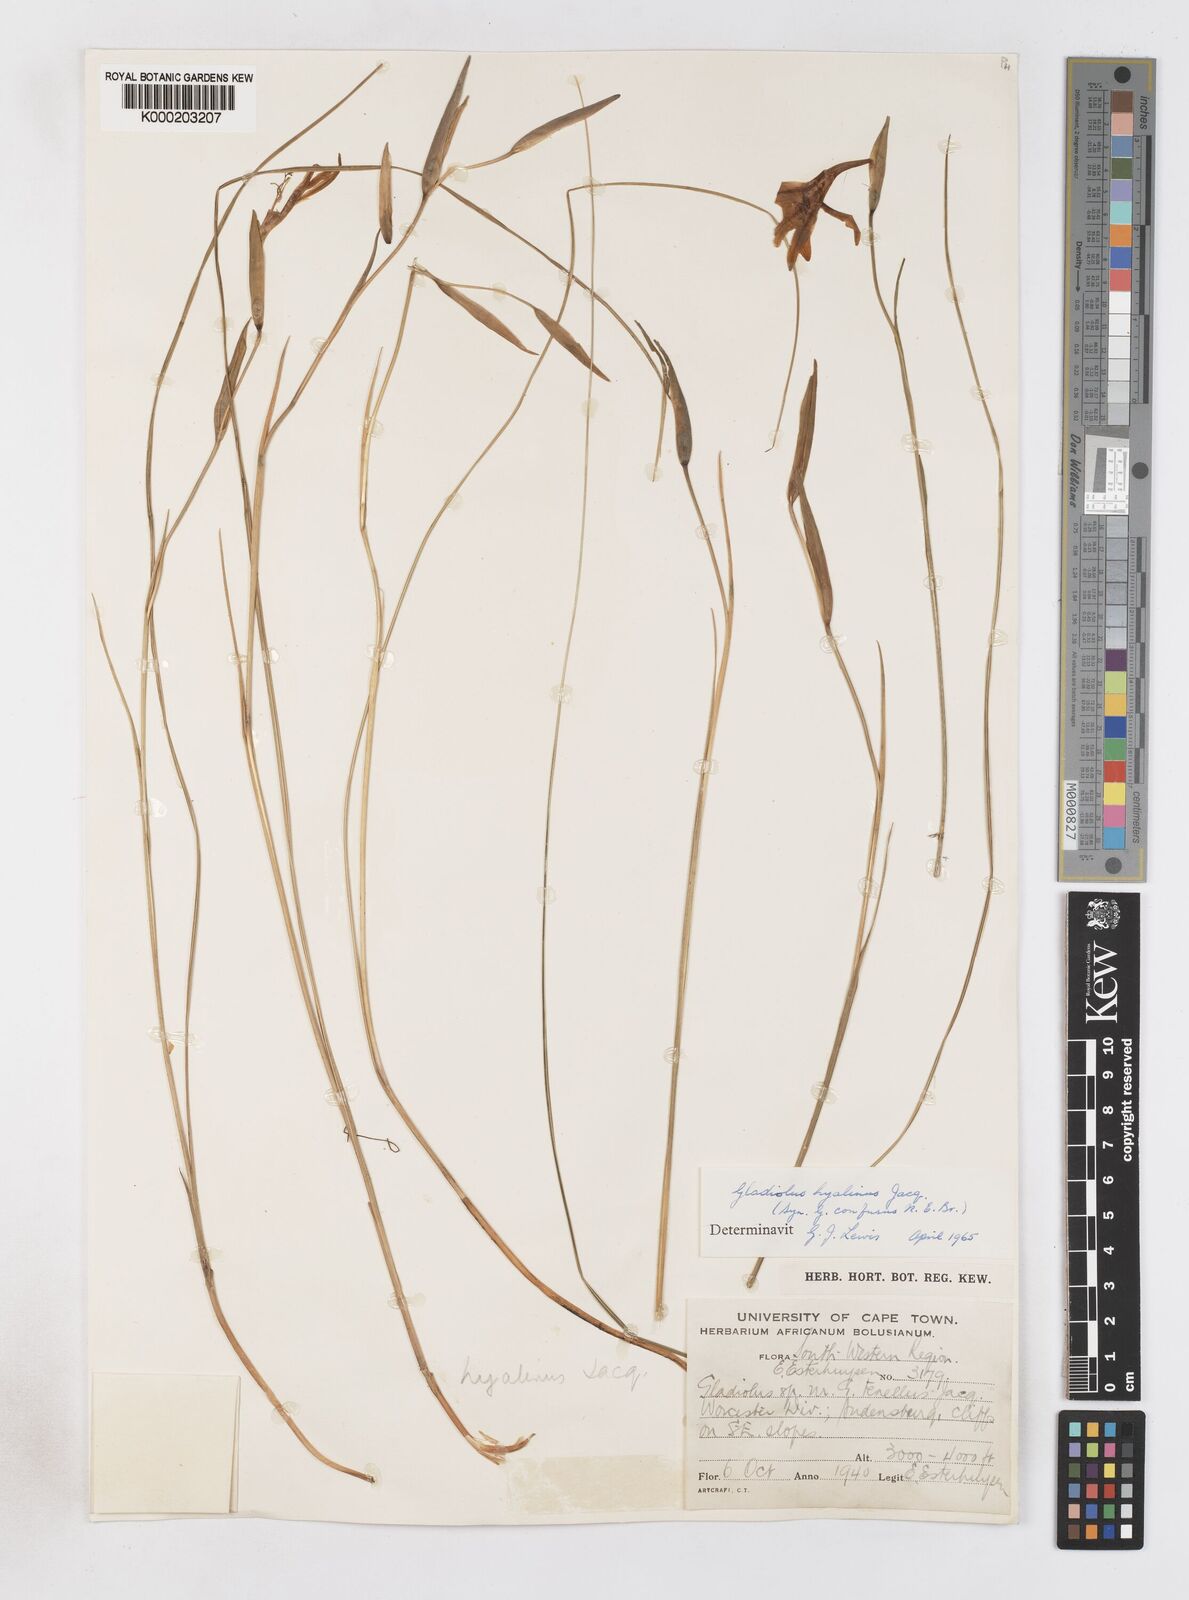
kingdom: Plantae
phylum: Tracheophyta
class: Liliopsida
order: Asparagales
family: Iridaceae
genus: Gladiolus
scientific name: Gladiolus hyalinus
